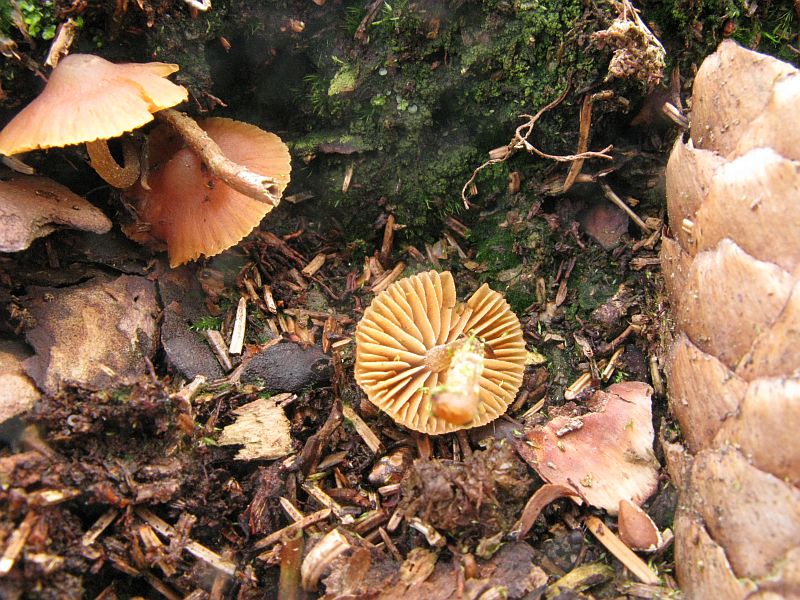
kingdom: Fungi
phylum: Basidiomycota
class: Agaricomycetes
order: Agaricales
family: Hymenogastraceae
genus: Galerina
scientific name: Galerina triscopa
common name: spidspuklet hjelmhat
